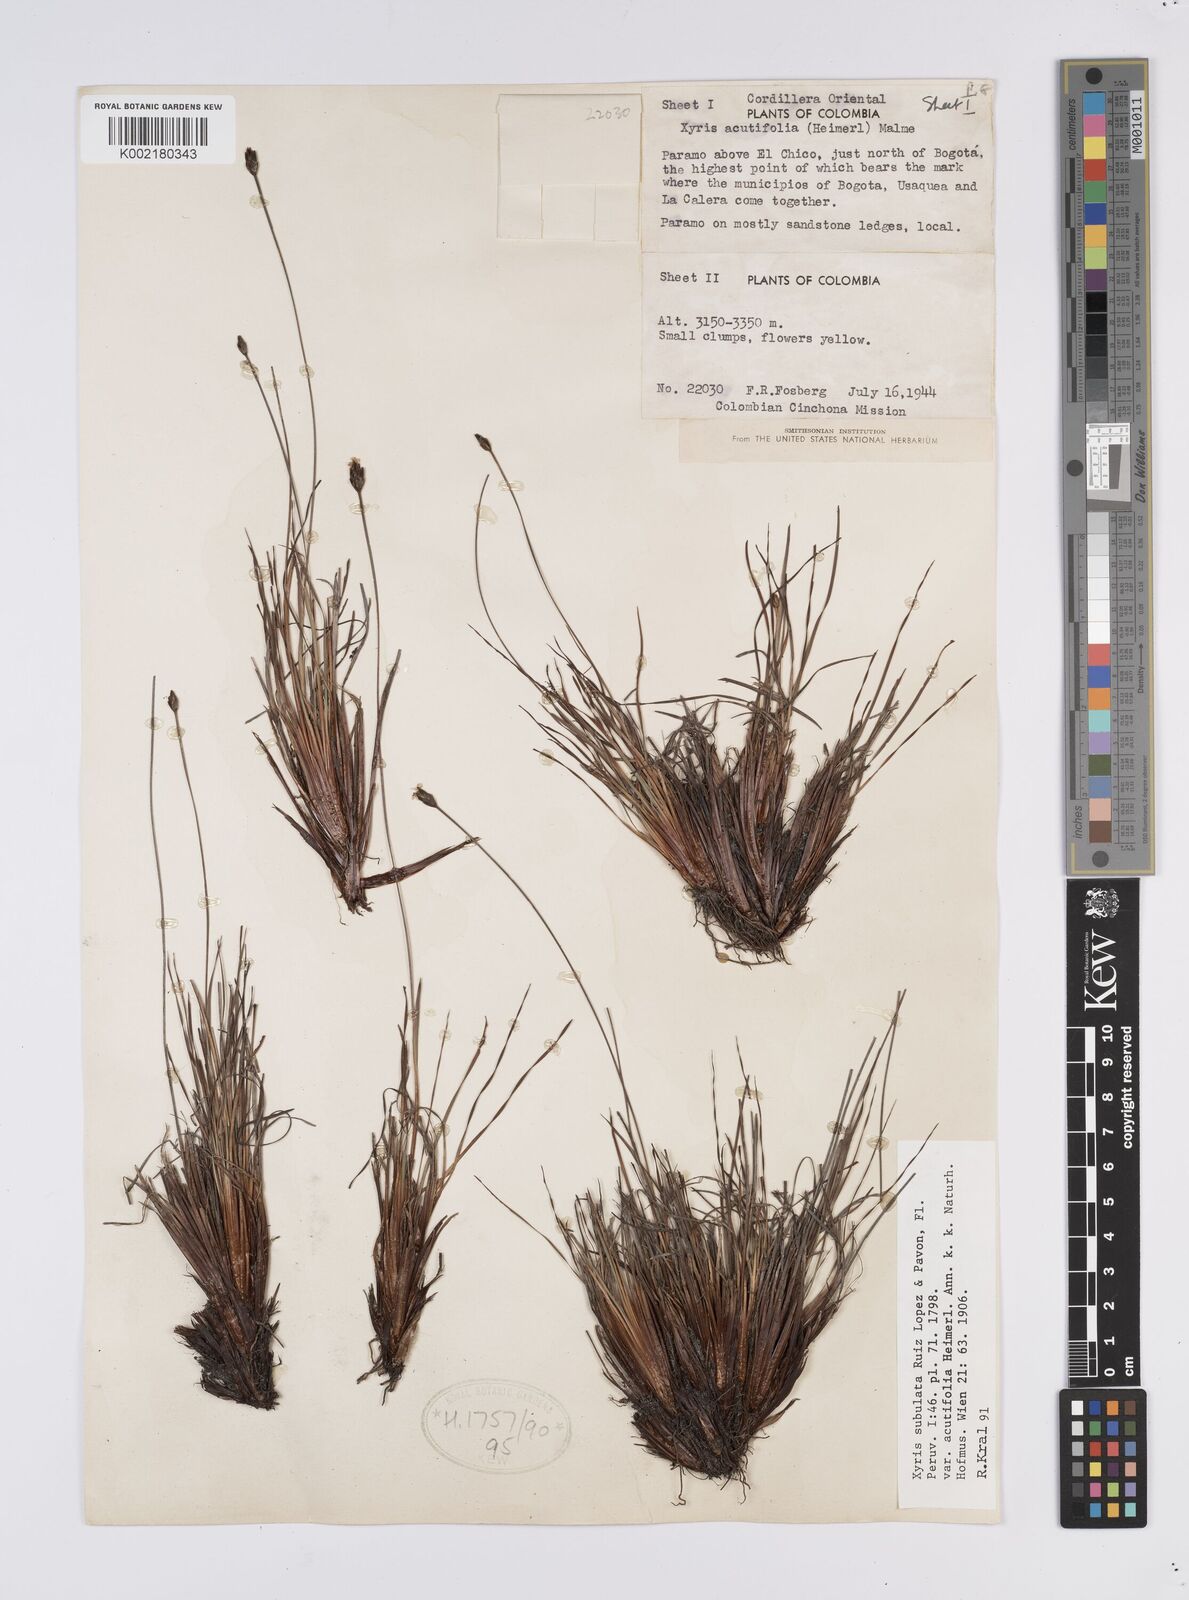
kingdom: Plantae
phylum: Tracheophyta
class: Liliopsida
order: Poales
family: Xyridaceae
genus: Xyris
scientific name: Xyris subulata
